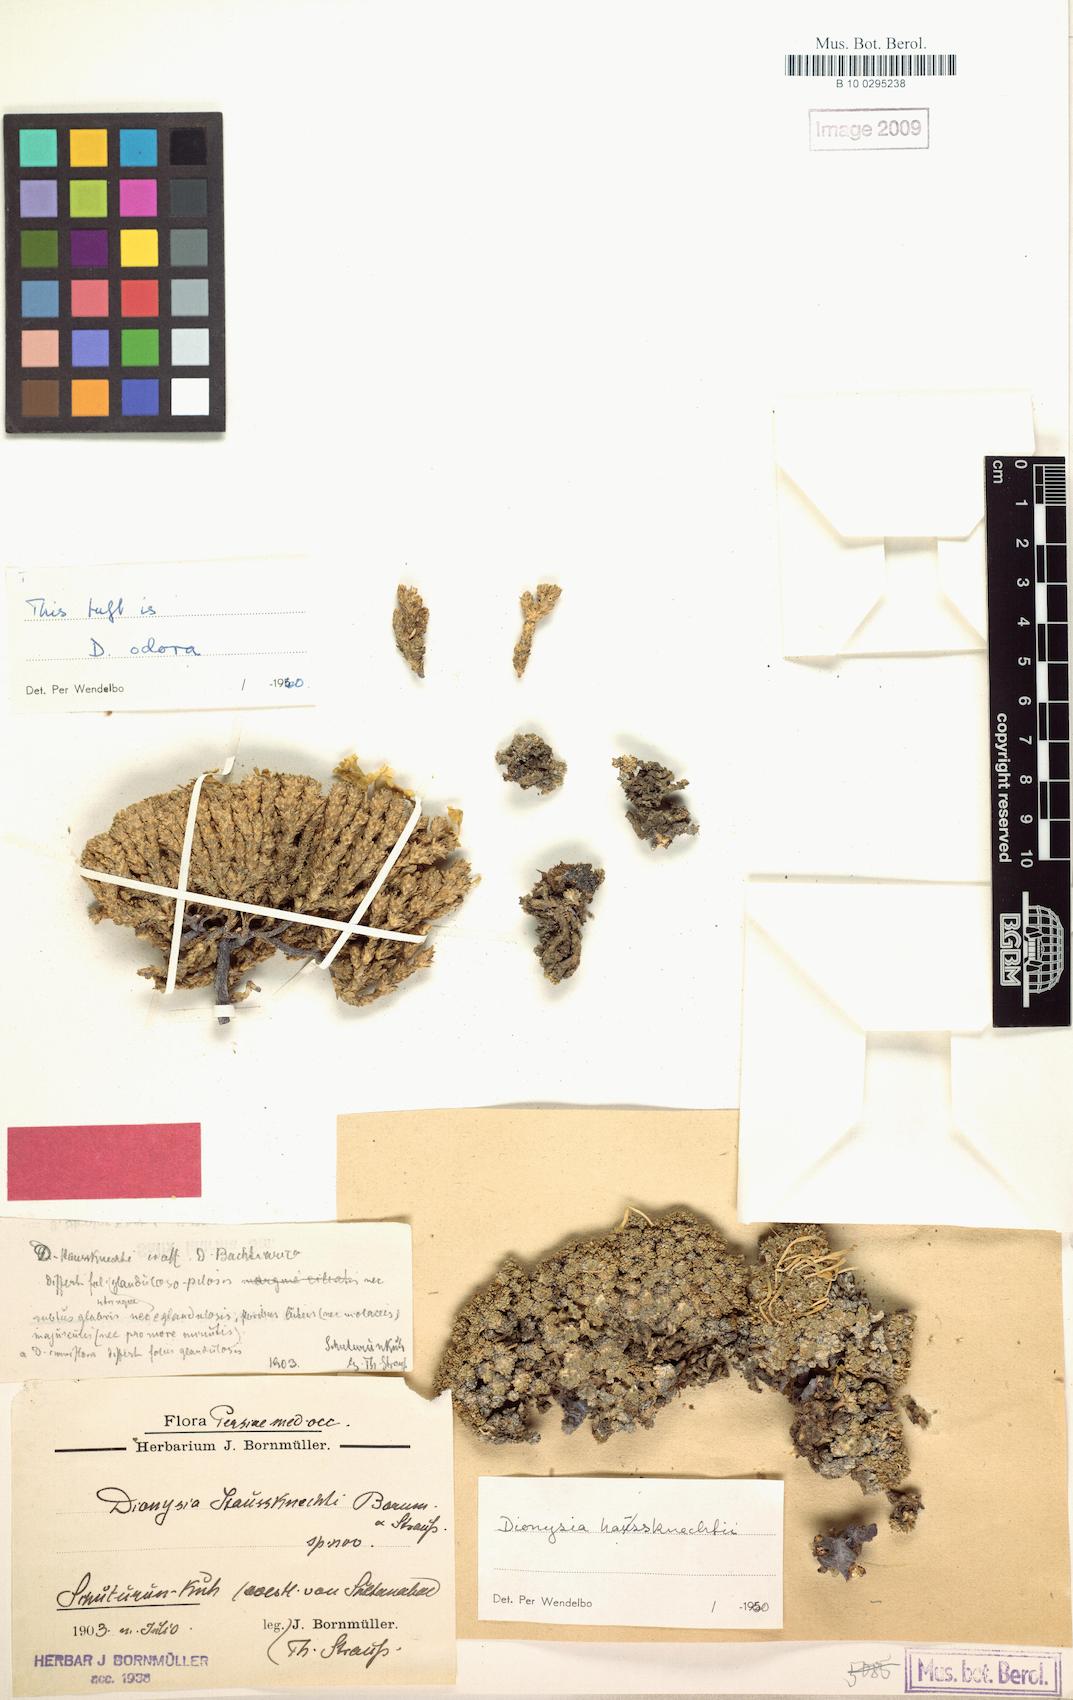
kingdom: Plantae
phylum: Tracheophyta
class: Magnoliopsida
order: Ericales
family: Primulaceae
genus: Dionysia
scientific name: Dionysia haussknechtii
